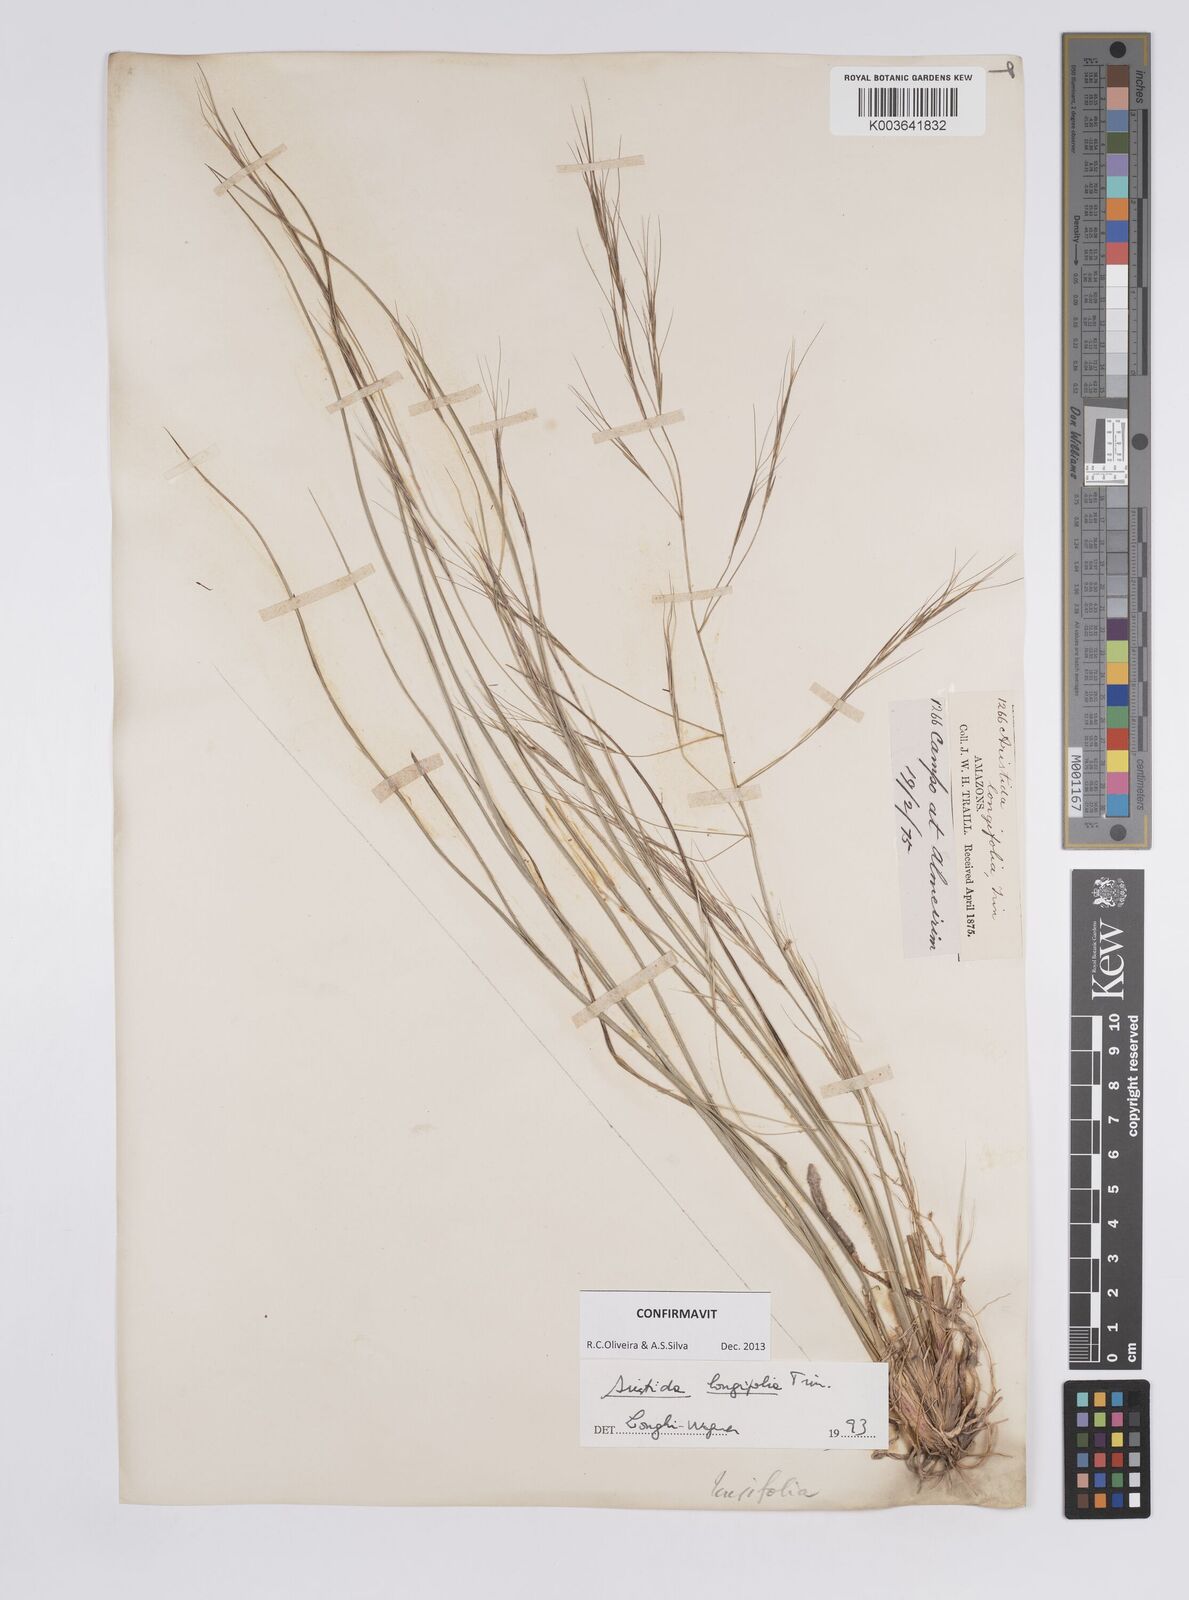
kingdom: Plantae
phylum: Tracheophyta
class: Liliopsida
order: Poales
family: Poaceae
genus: Aristida
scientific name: Aristida longifolia
